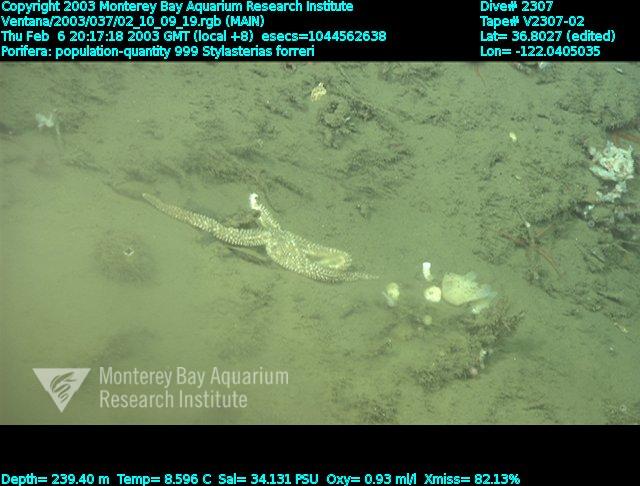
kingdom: Animalia
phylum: Porifera
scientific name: Porifera
